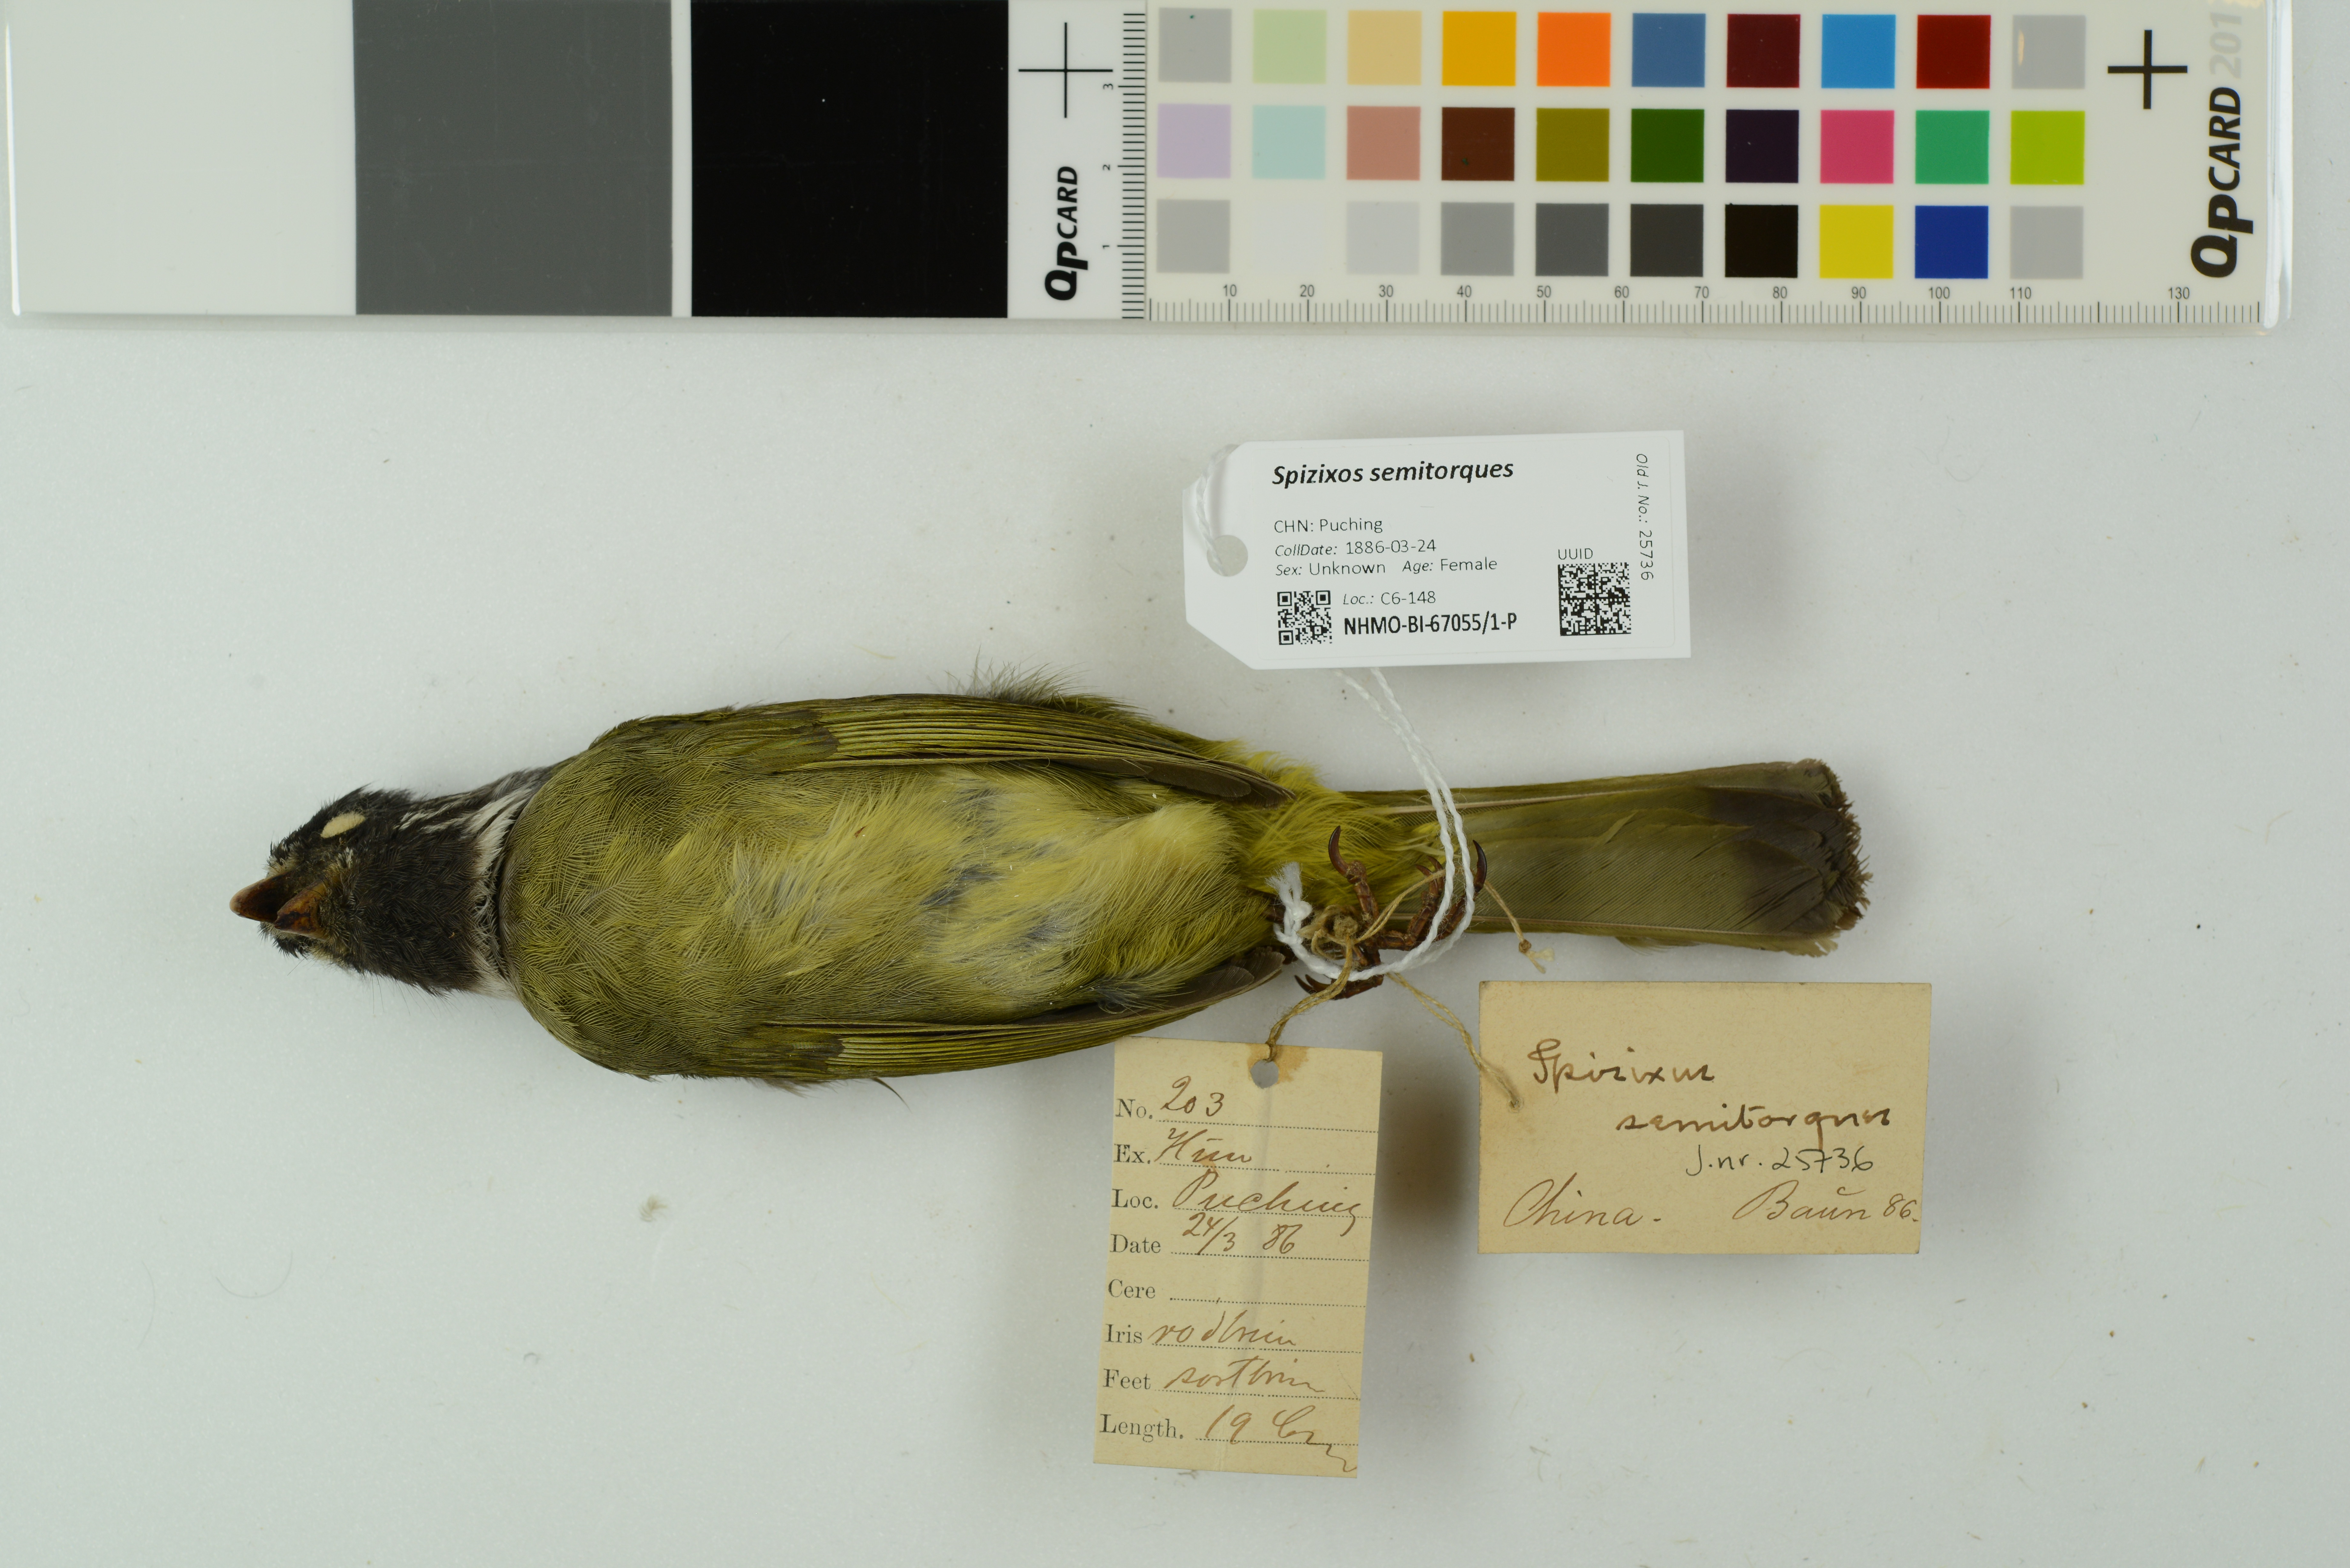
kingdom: Animalia
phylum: Chordata
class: Aves
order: Passeriformes
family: Pycnonotidae
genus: Spizixos
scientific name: Spizixos semitorques
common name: Collared finchbill
